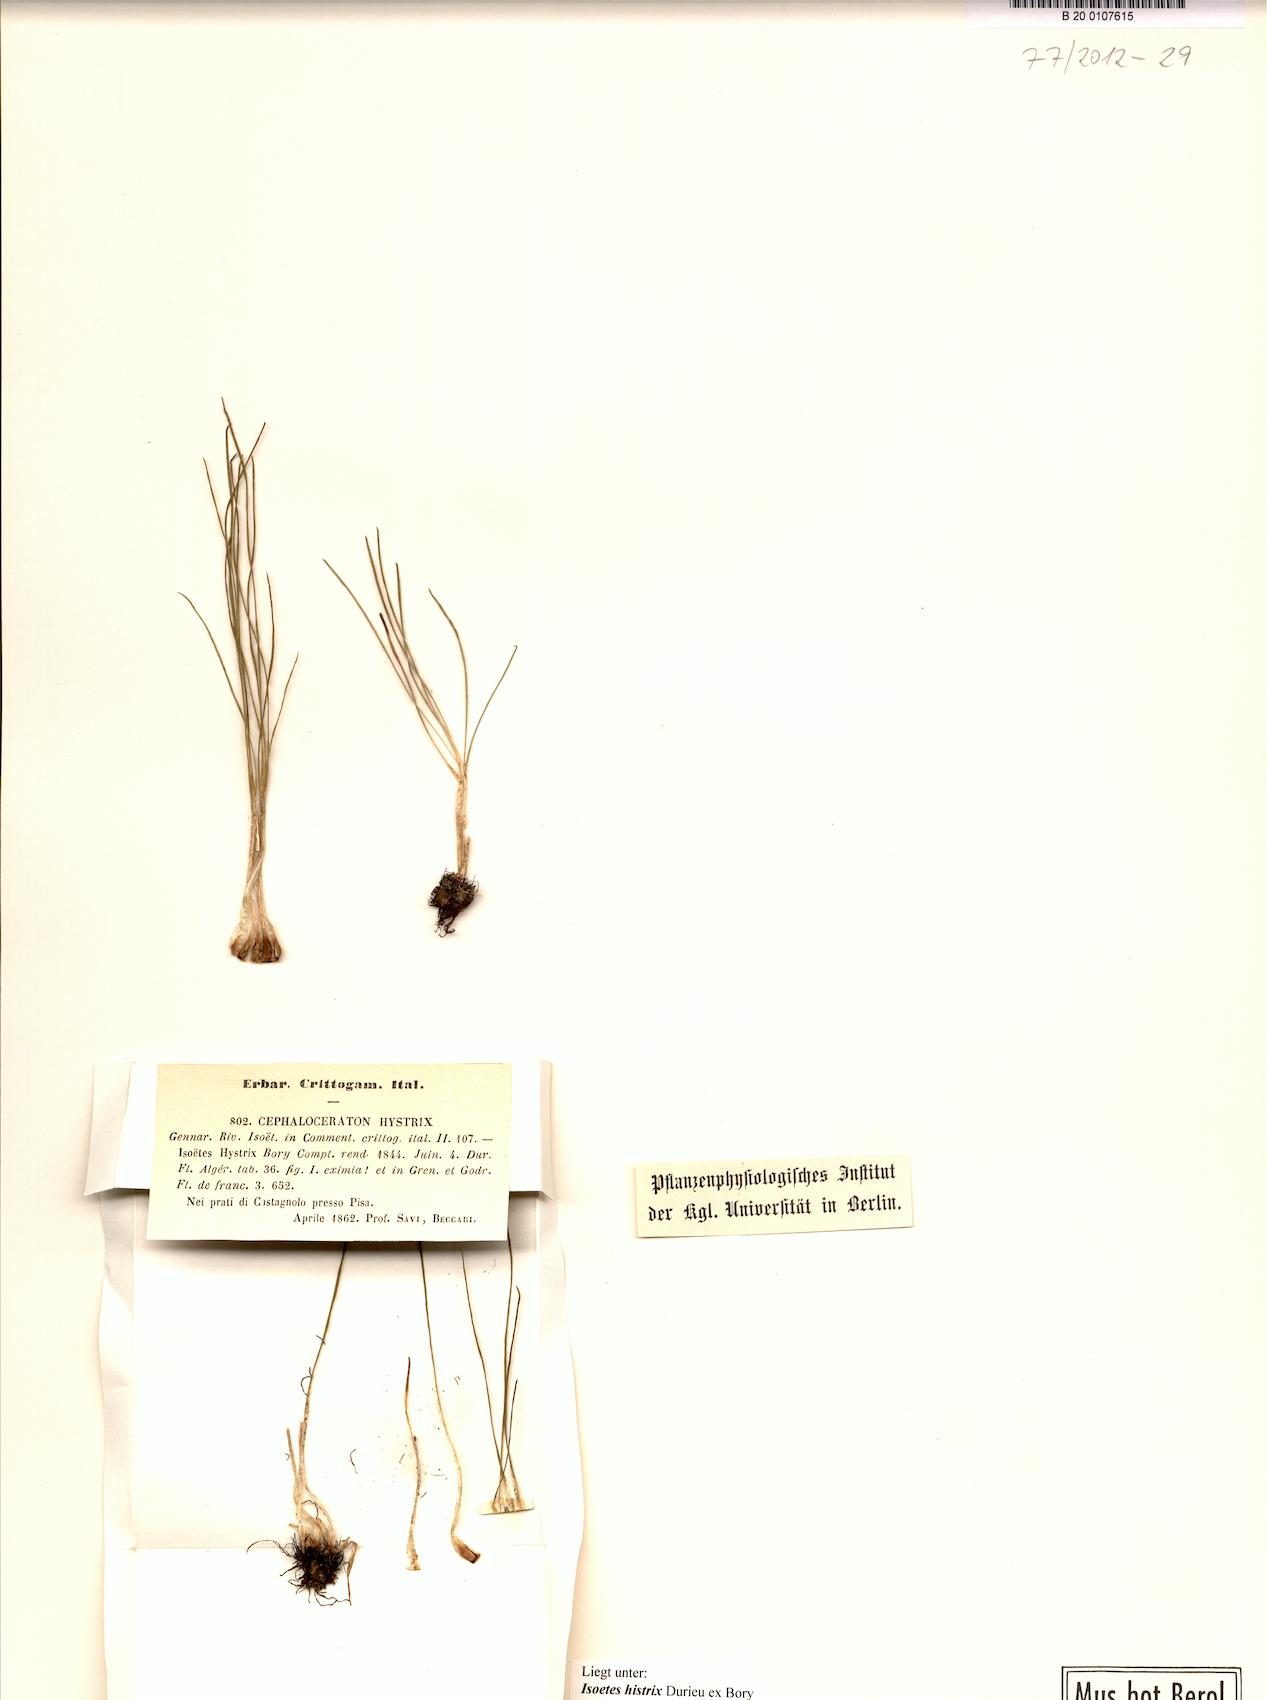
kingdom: Plantae
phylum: Tracheophyta
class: Lycopodiopsida
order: Isoetales
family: Isoetaceae
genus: Isoetes
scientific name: Isoetes histrix
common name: Land quillwort
